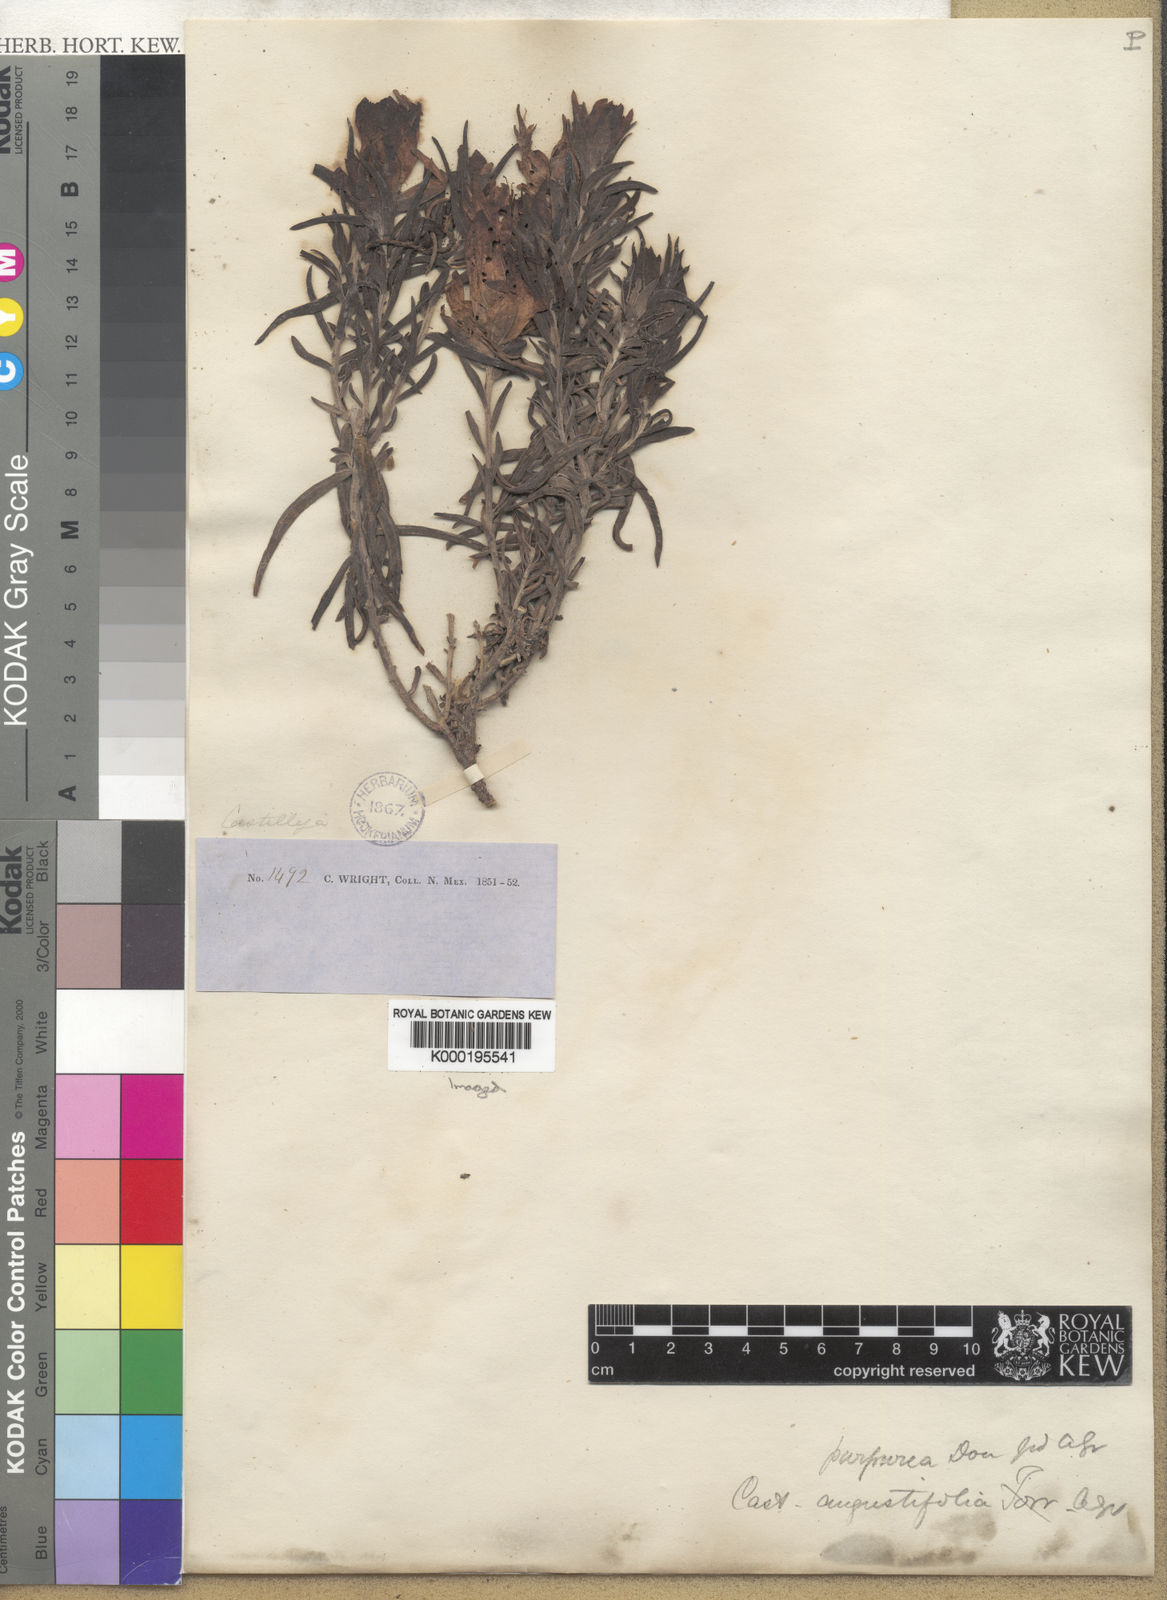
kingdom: Plantae
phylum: Tracheophyta
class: Magnoliopsida
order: Lamiales
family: Orobanchaceae
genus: Castilleja
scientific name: Castilleja integra
